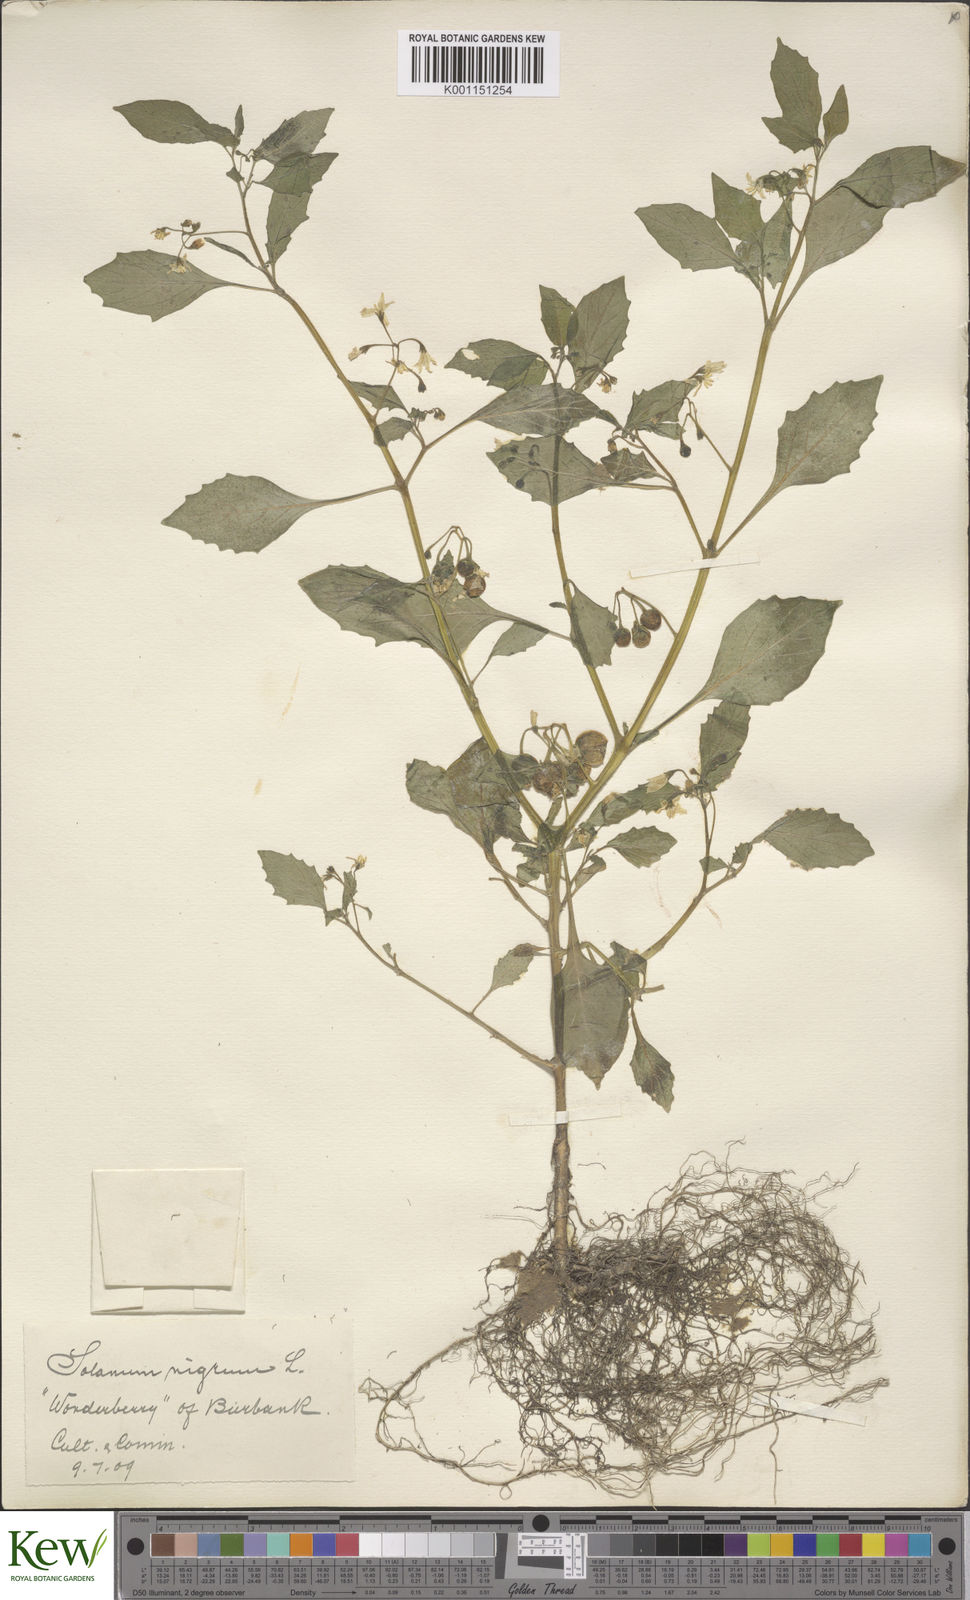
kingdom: Plantae
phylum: Tracheophyta
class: Magnoliopsida
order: Solanales
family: Solanaceae
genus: Solanum
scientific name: Solanum nigrum
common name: Black nightshade
